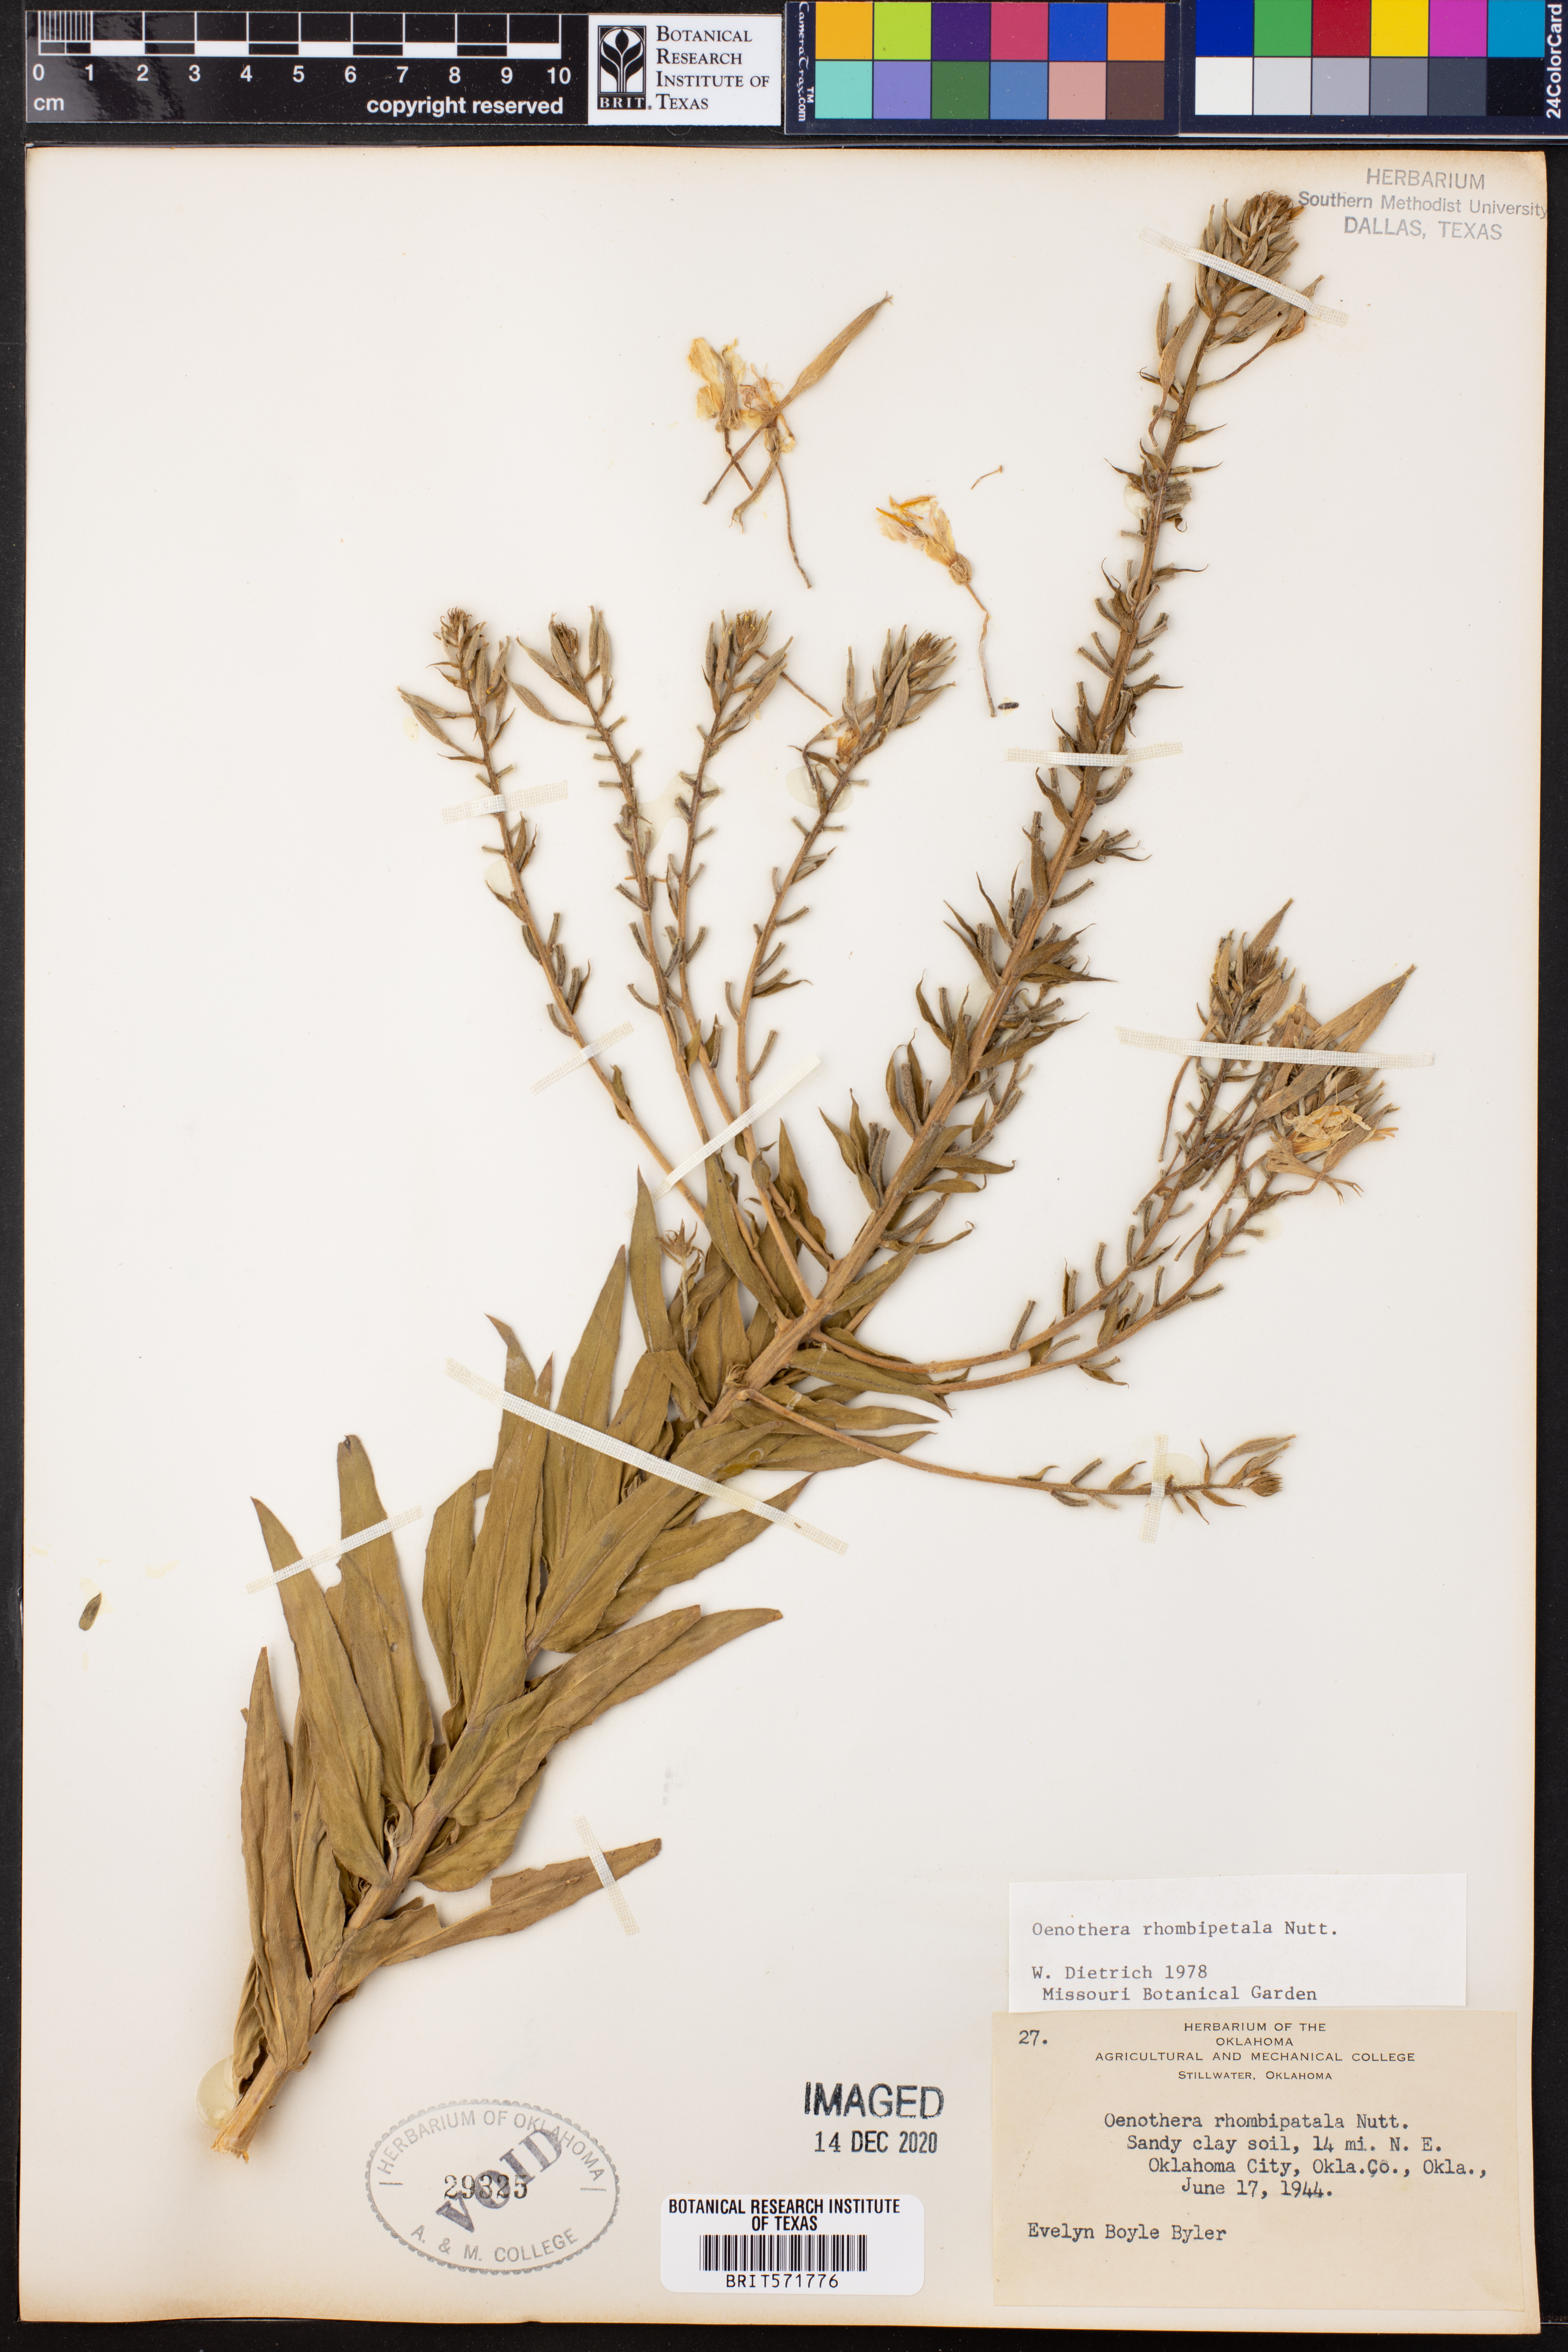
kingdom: Plantae
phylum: Tracheophyta
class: Magnoliopsida
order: Myrtales
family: Onagraceae
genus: Oenothera
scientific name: Oenothera rhombipetala
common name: Four-points evening-primrose
